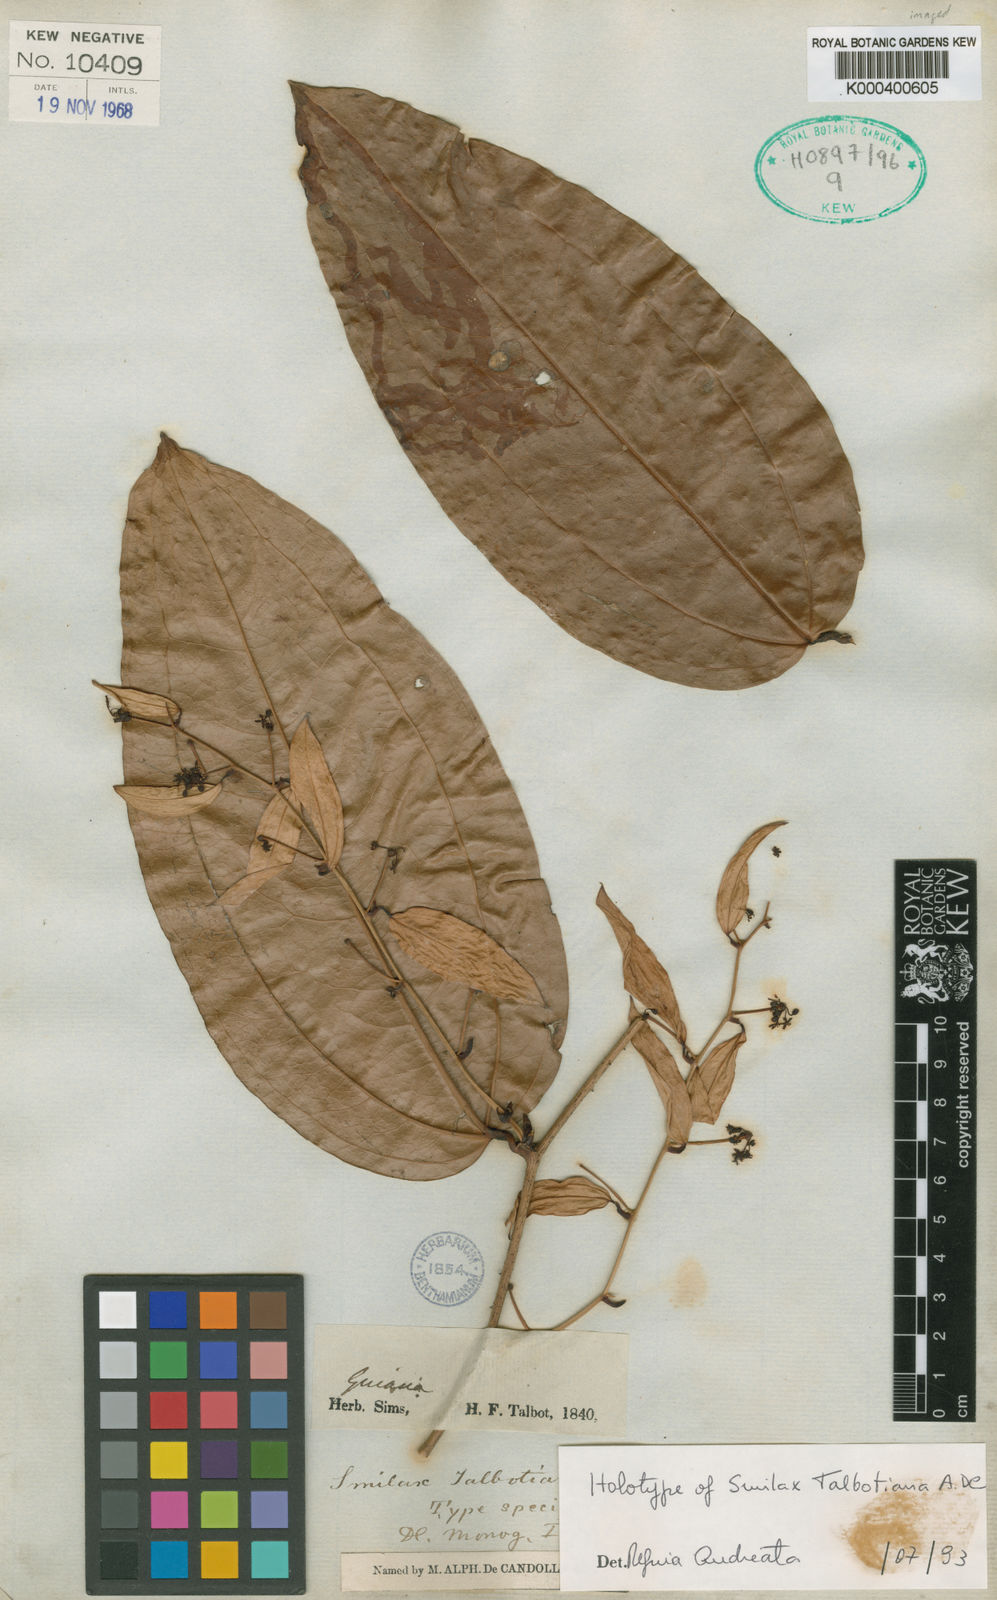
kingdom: Plantae
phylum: Tracheophyta
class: Liliopsida
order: Liliales
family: Smilacaceae
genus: Smilax
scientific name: Smilax talbotiana
